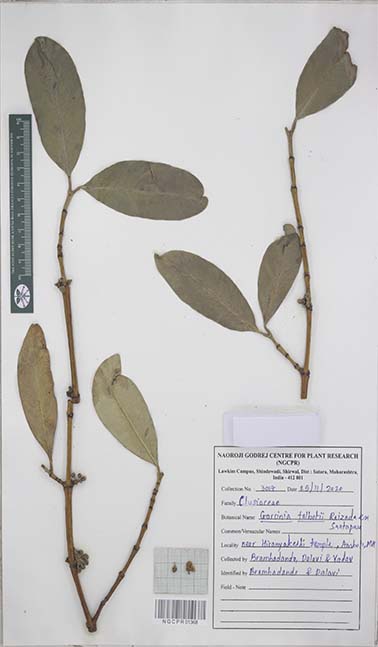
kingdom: Plantae
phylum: Tracheophyta
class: Magnoliopsida
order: Malpighiales
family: Clusiaceae
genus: Garcinia
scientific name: Garcinia talbotii
